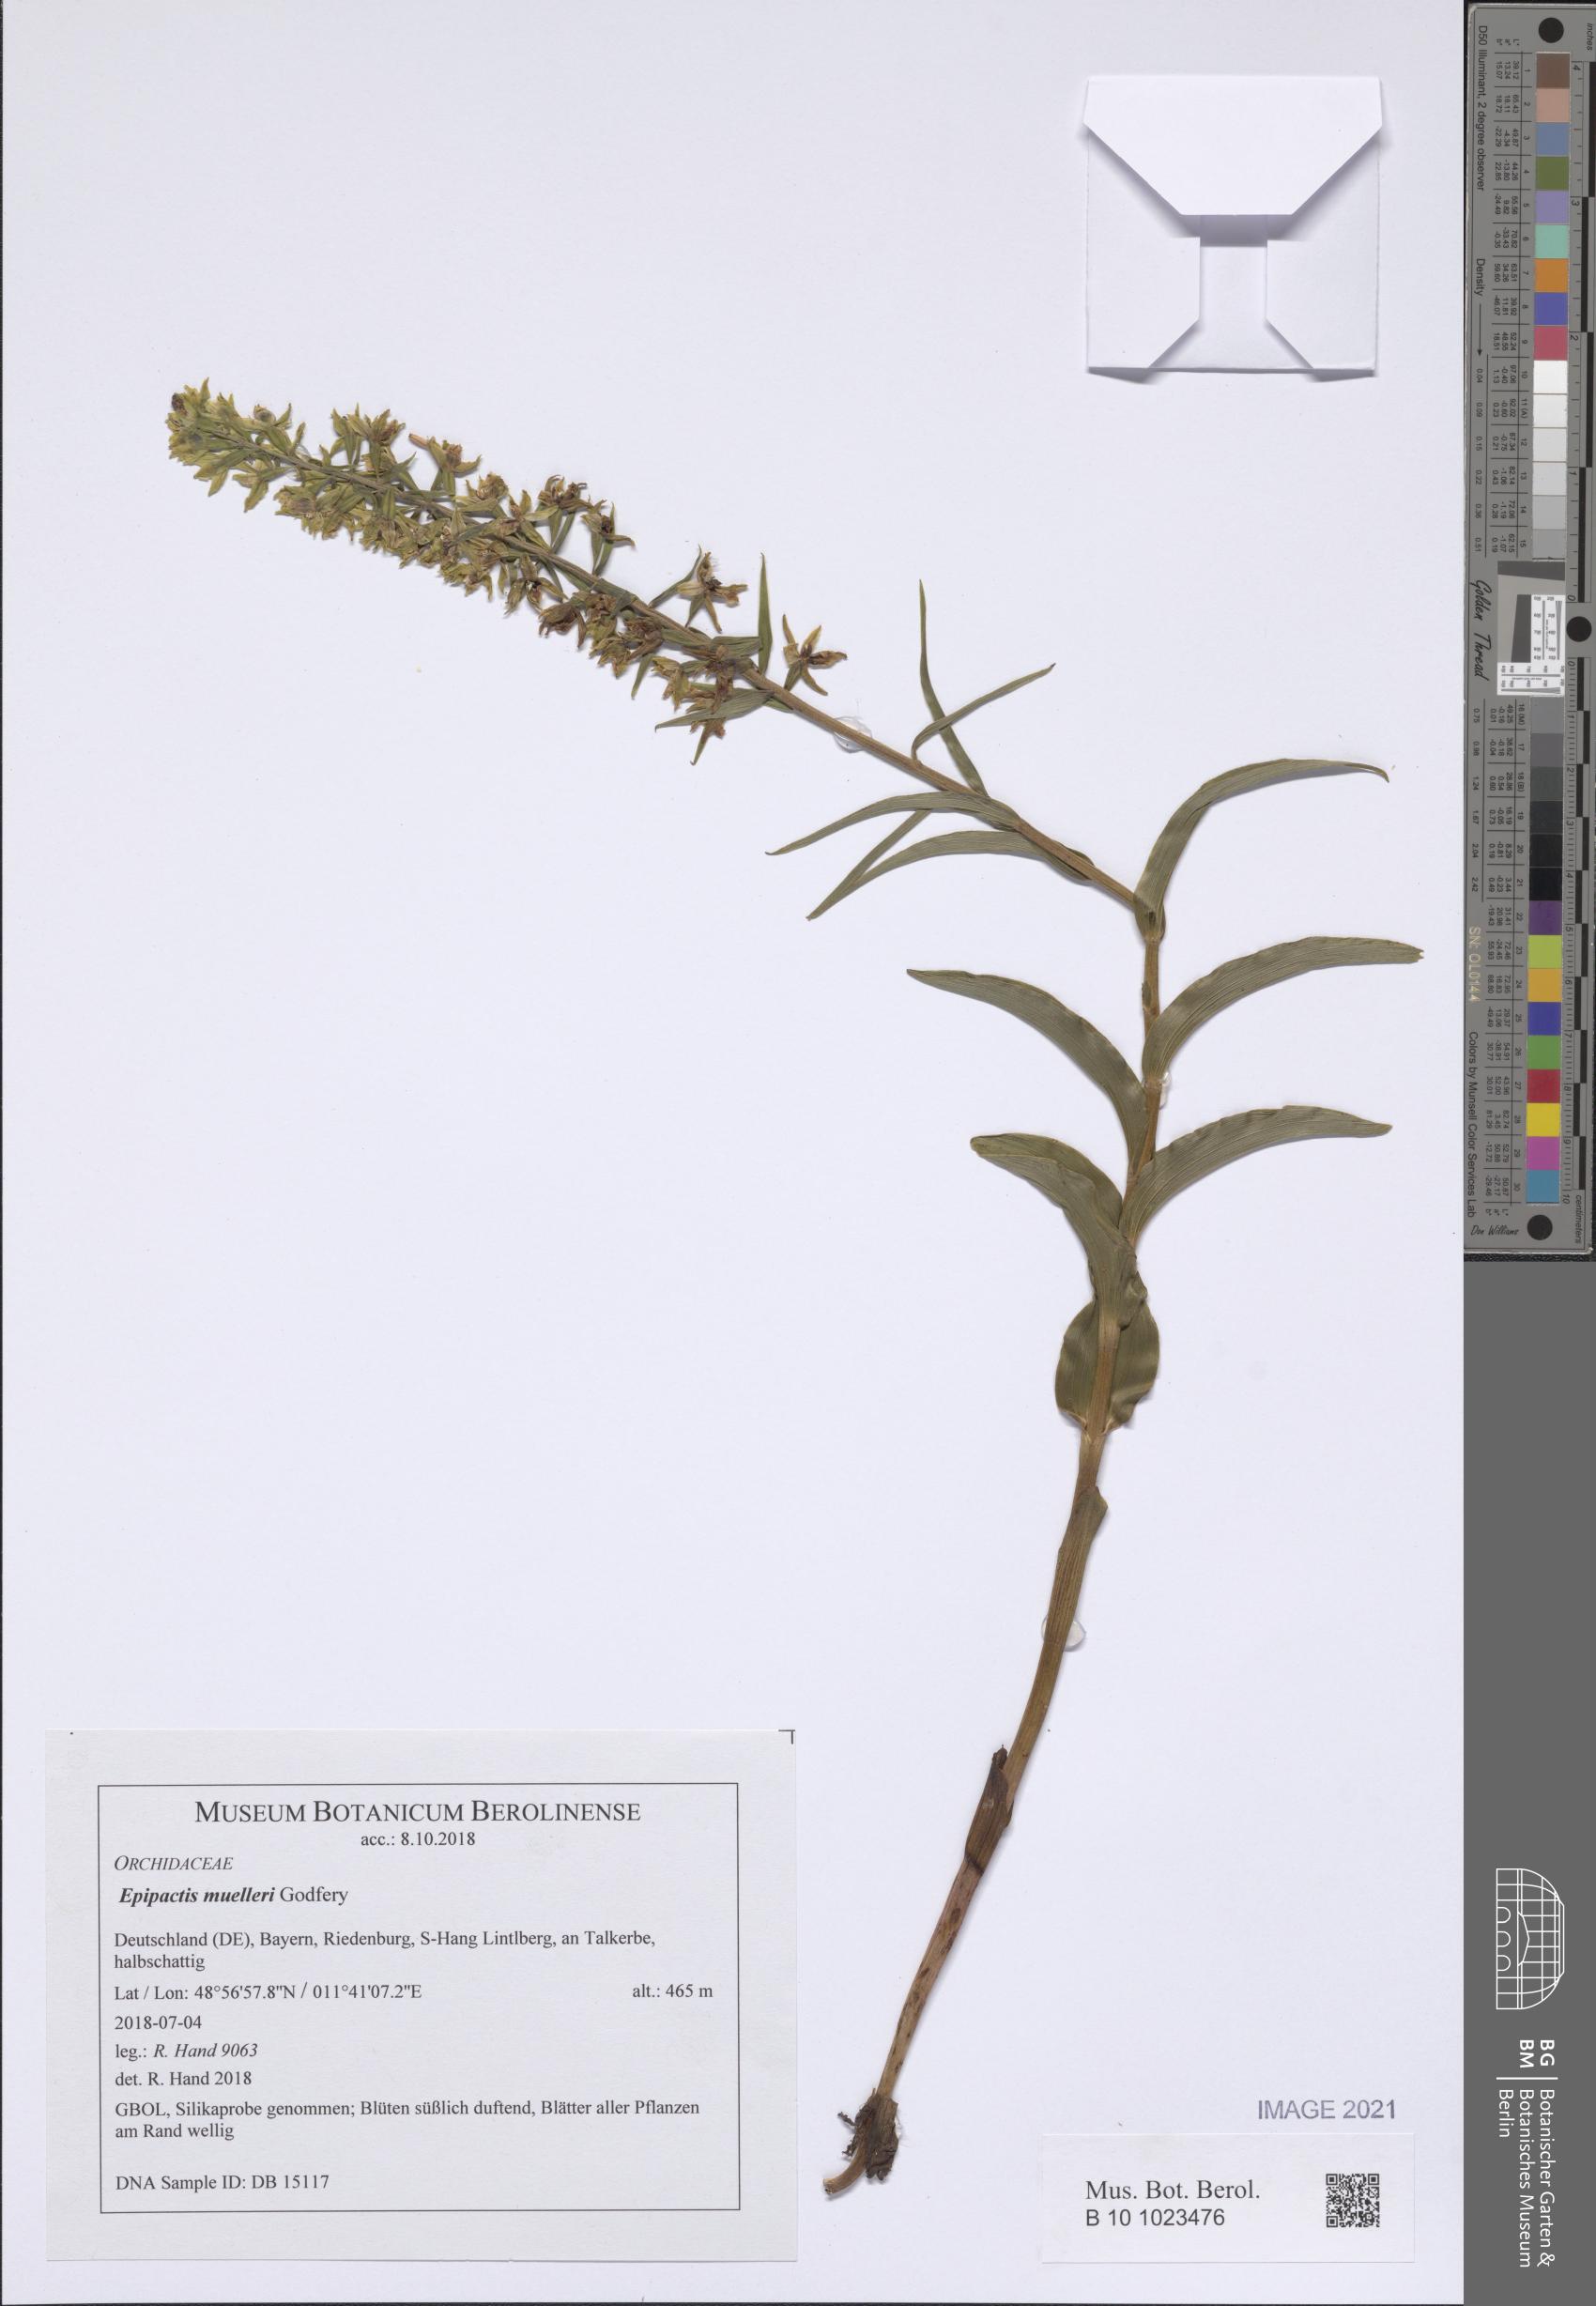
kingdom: Plantae
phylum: Tracheophyta
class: Liliopsida
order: Asparagales
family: Orchidaceae
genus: Epipactis
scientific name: Epipactis muelleri
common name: Mueller's epipactis
